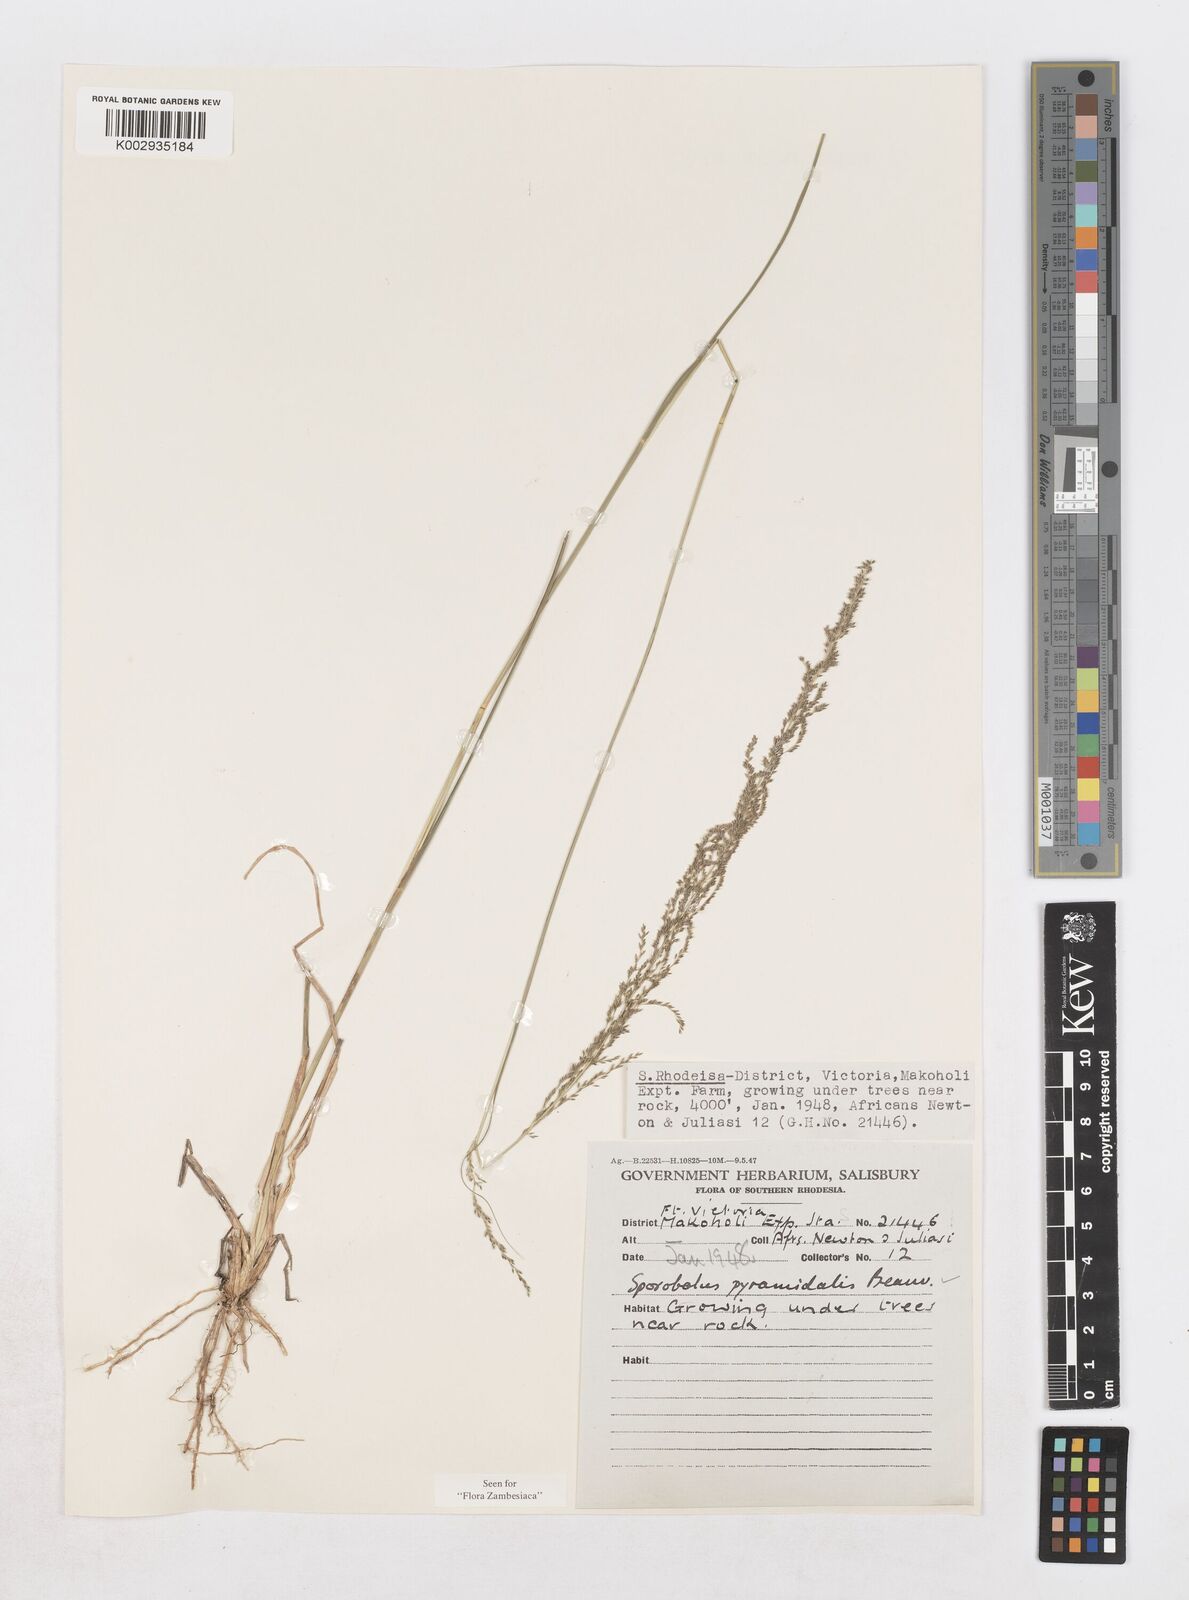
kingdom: Plantae
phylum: Tracheophyta
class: Liliopsida
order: Poales
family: Poaceae
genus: Sporobolus
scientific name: Sporobolus pyramidalis
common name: West indian dropseed
